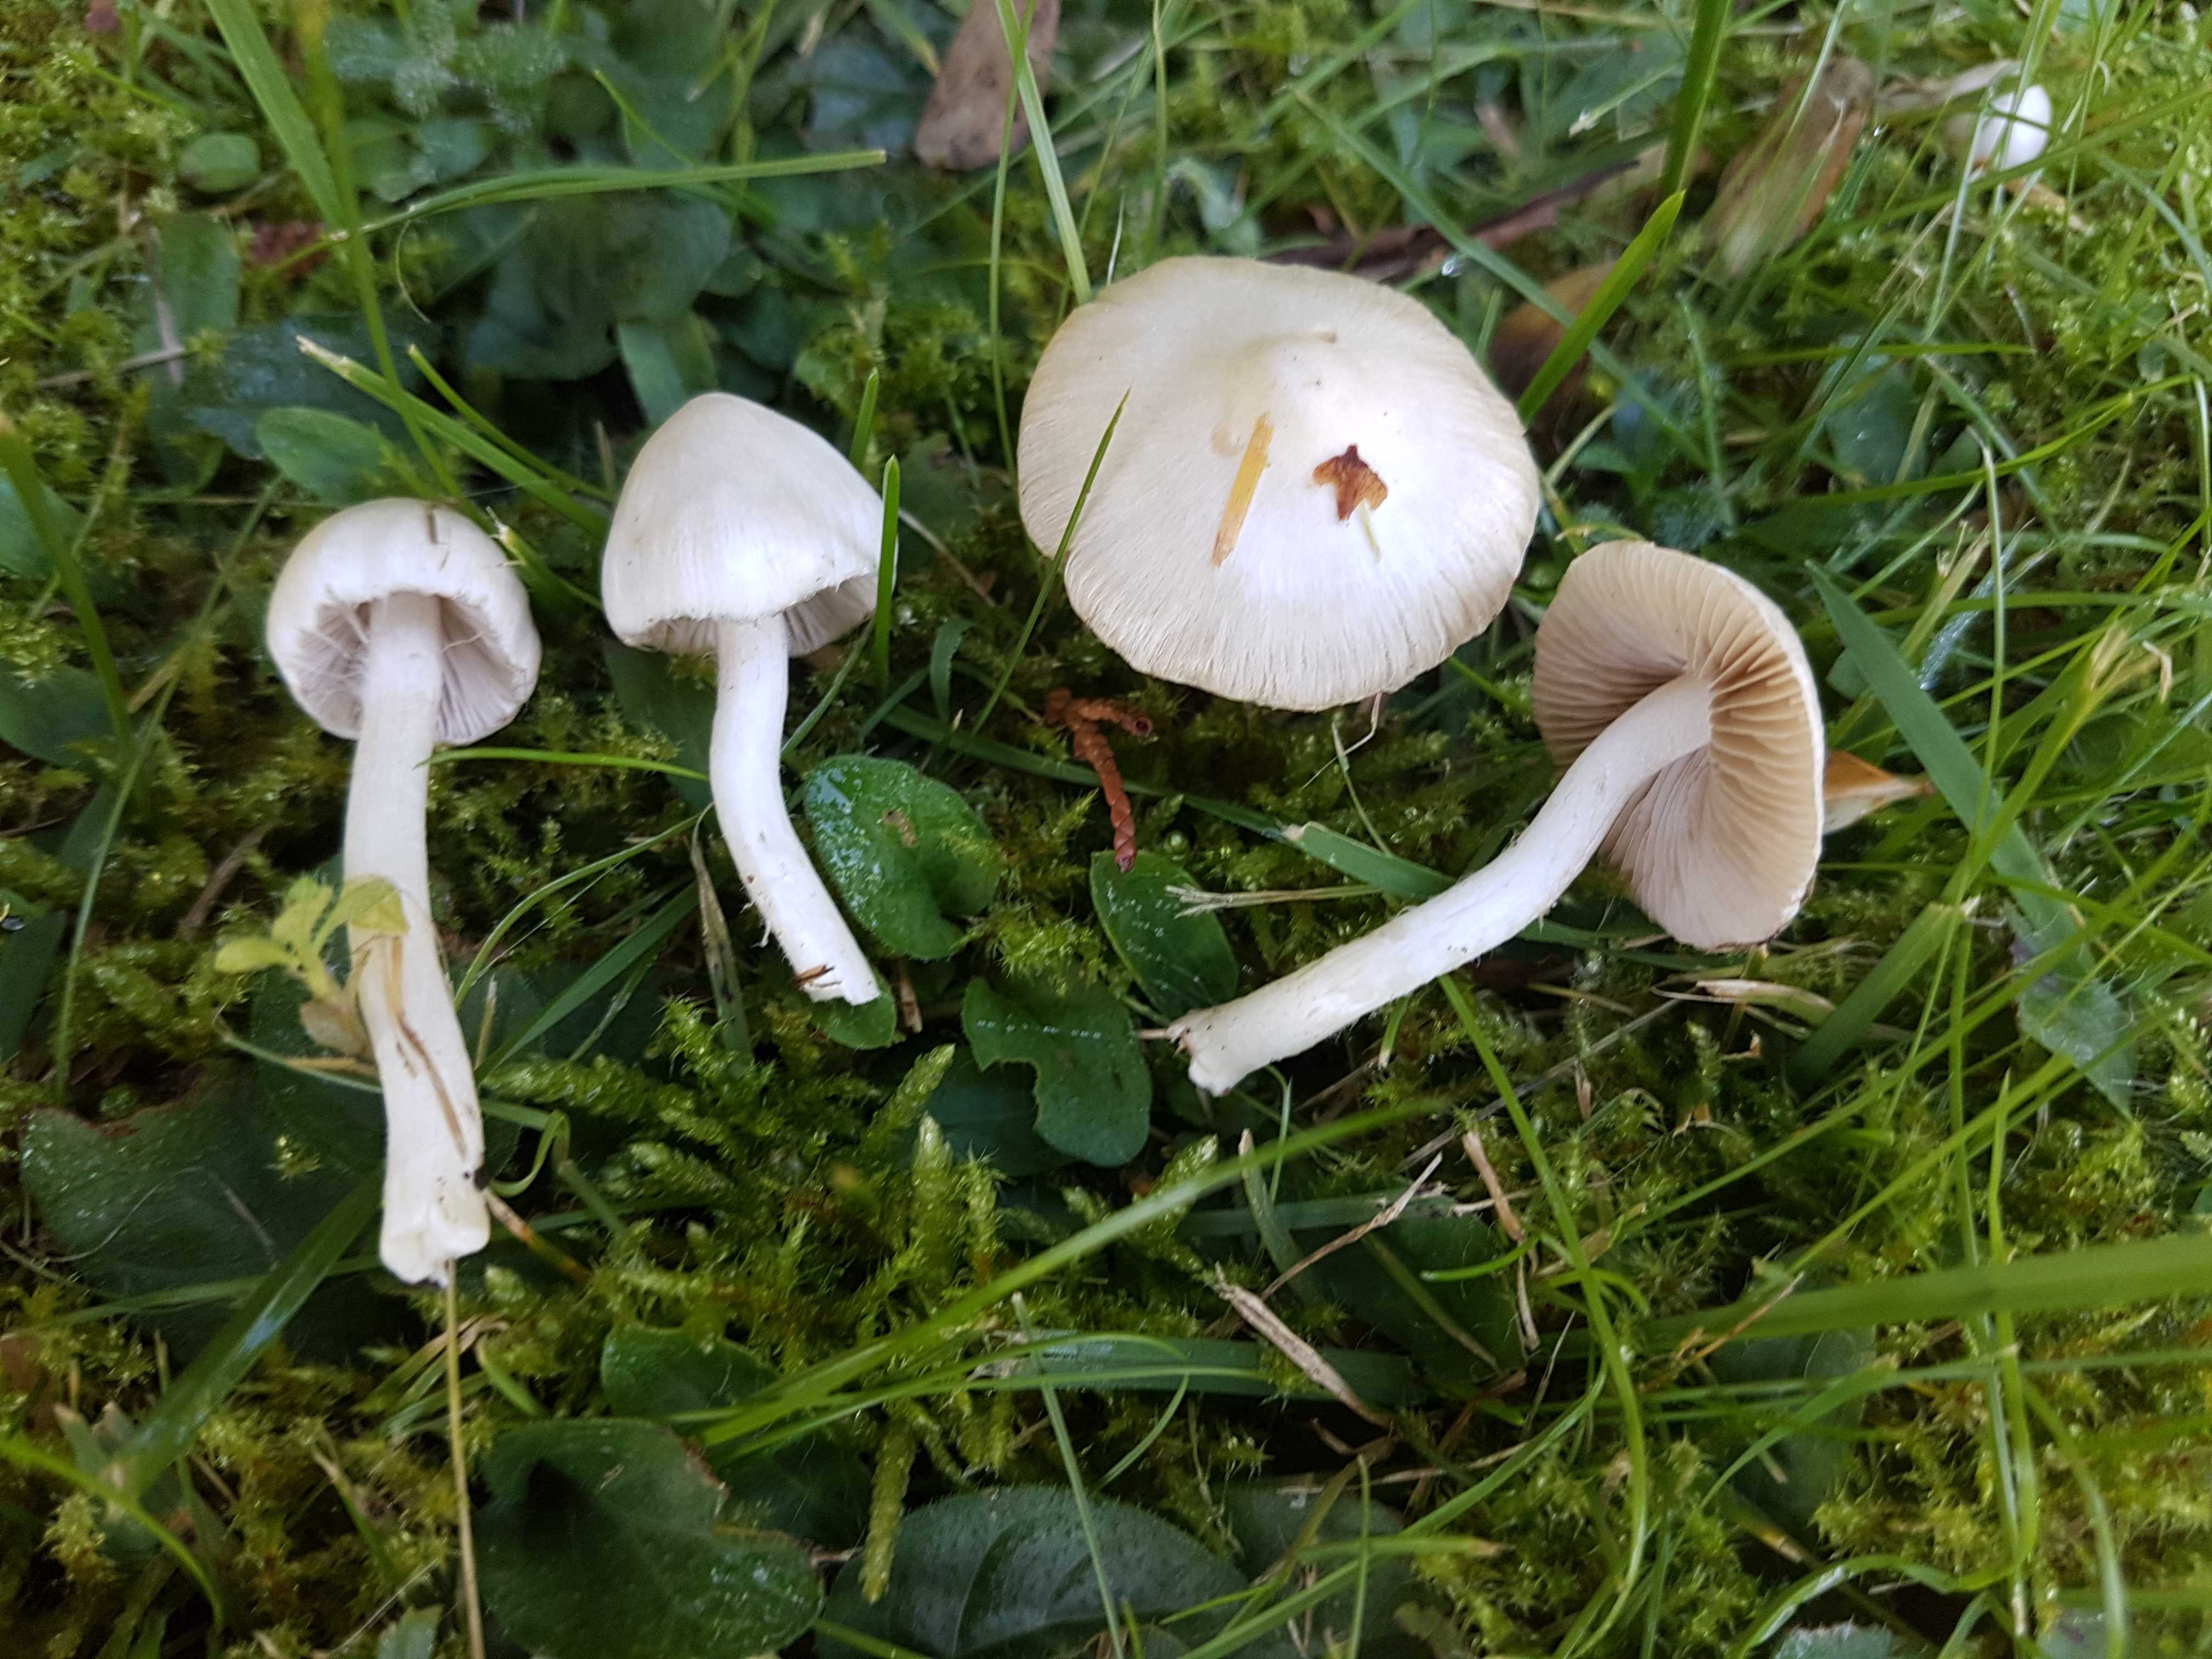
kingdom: Fungi
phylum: Basidiomycota
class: Agaricomycetes
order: Agaricales
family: Inocybaceae
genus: Inocybe
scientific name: Inocybe
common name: almindelig trævlhat
